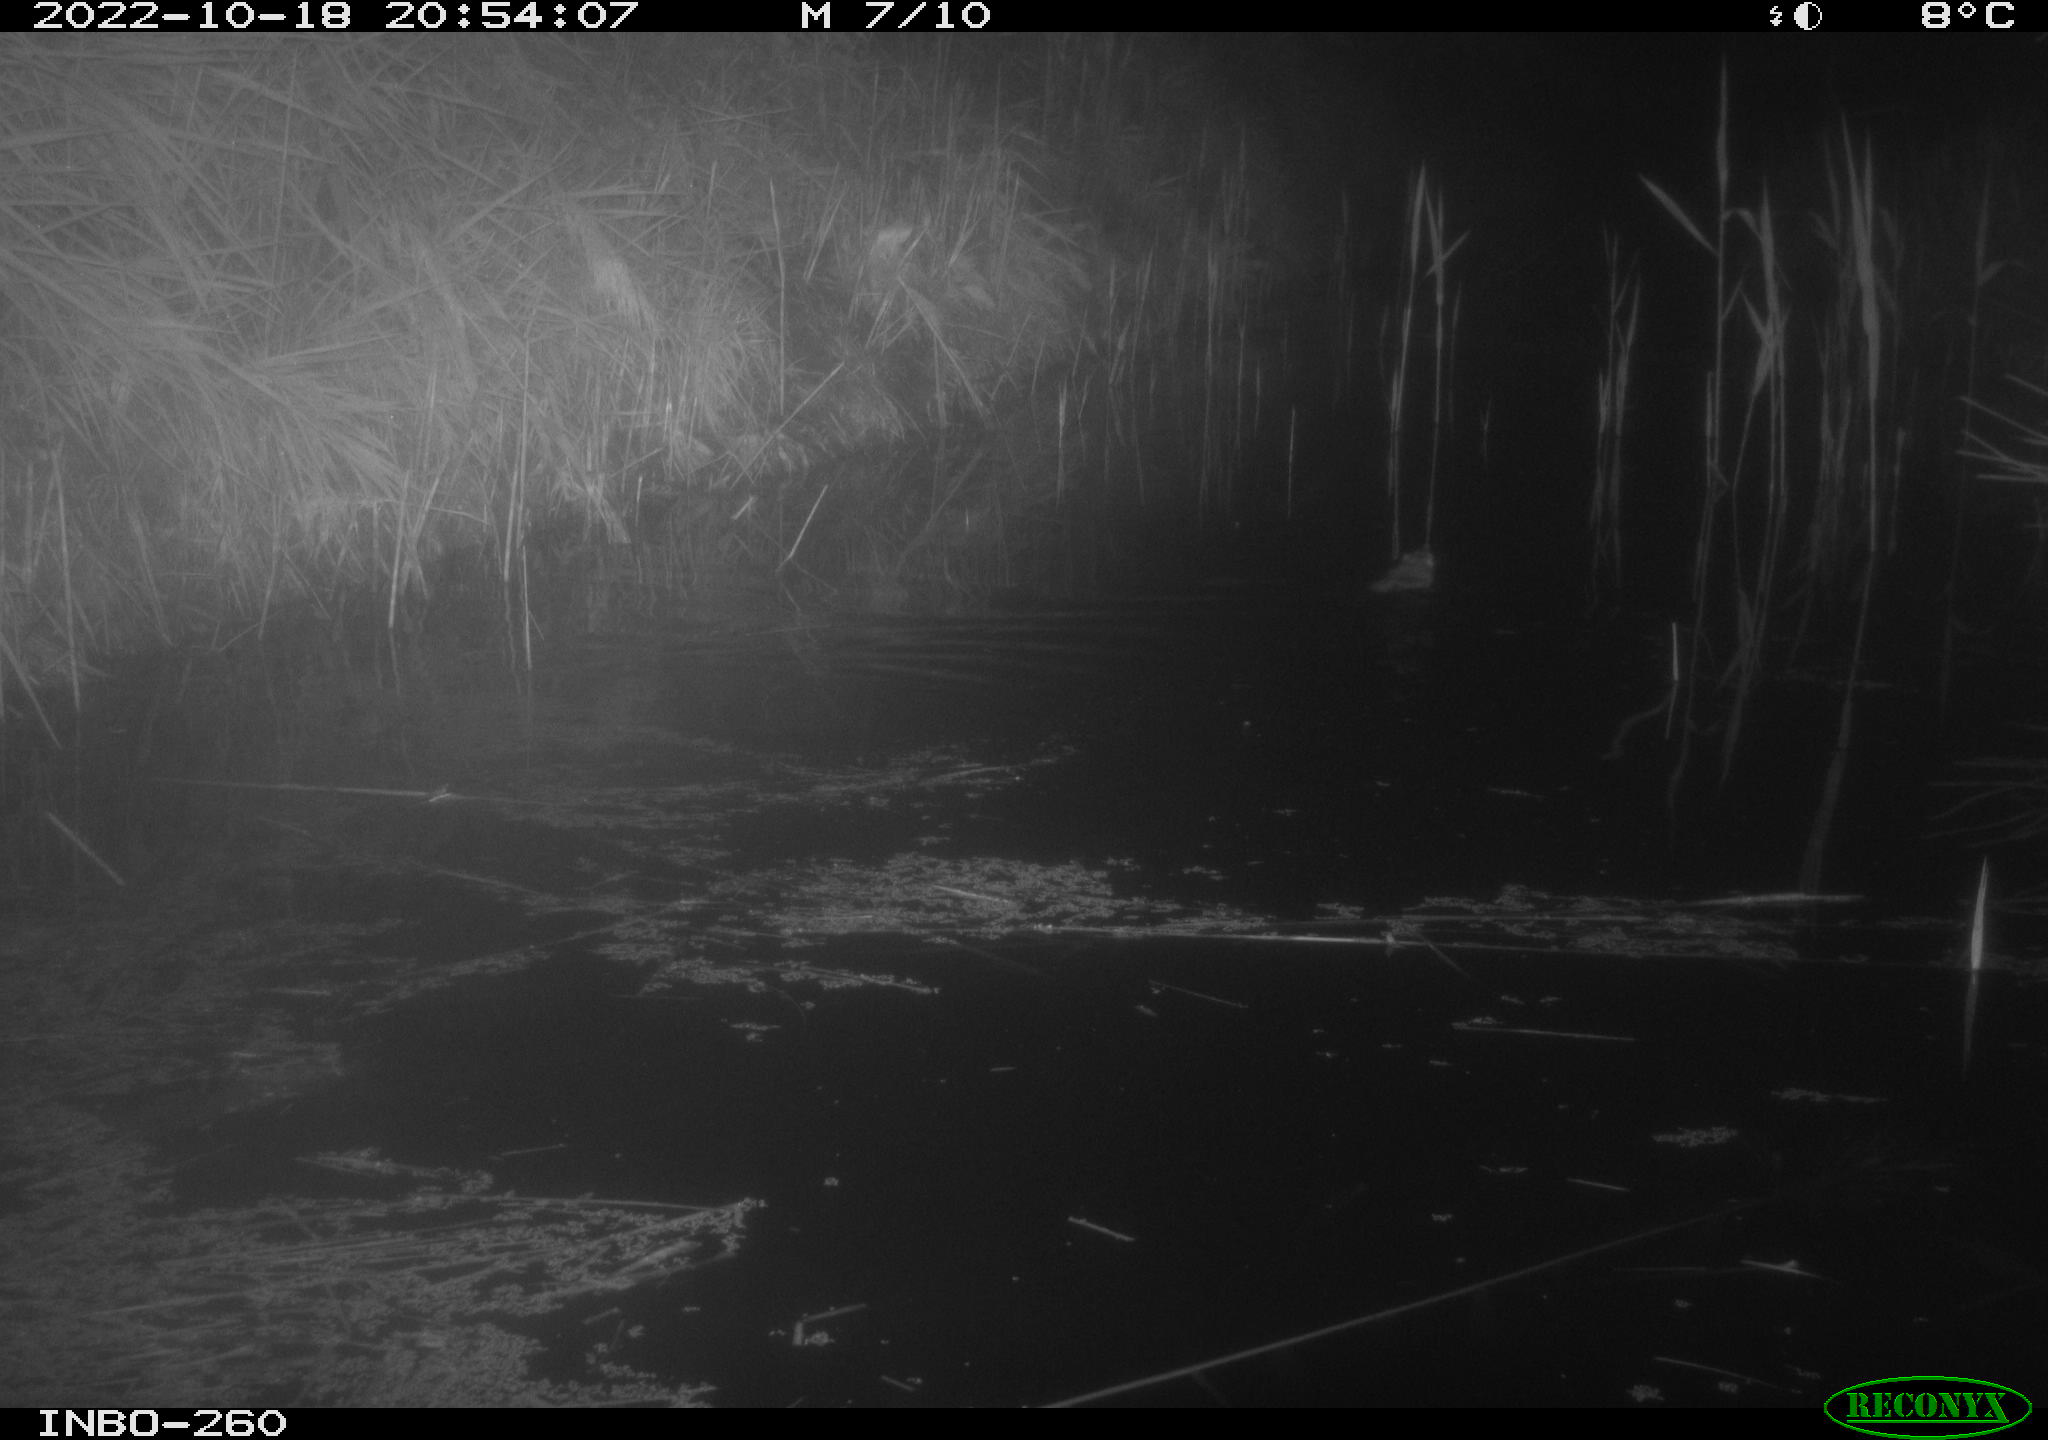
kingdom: Animalia
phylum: Chordata
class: Mammalia
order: Rodentia
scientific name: Rodentia
